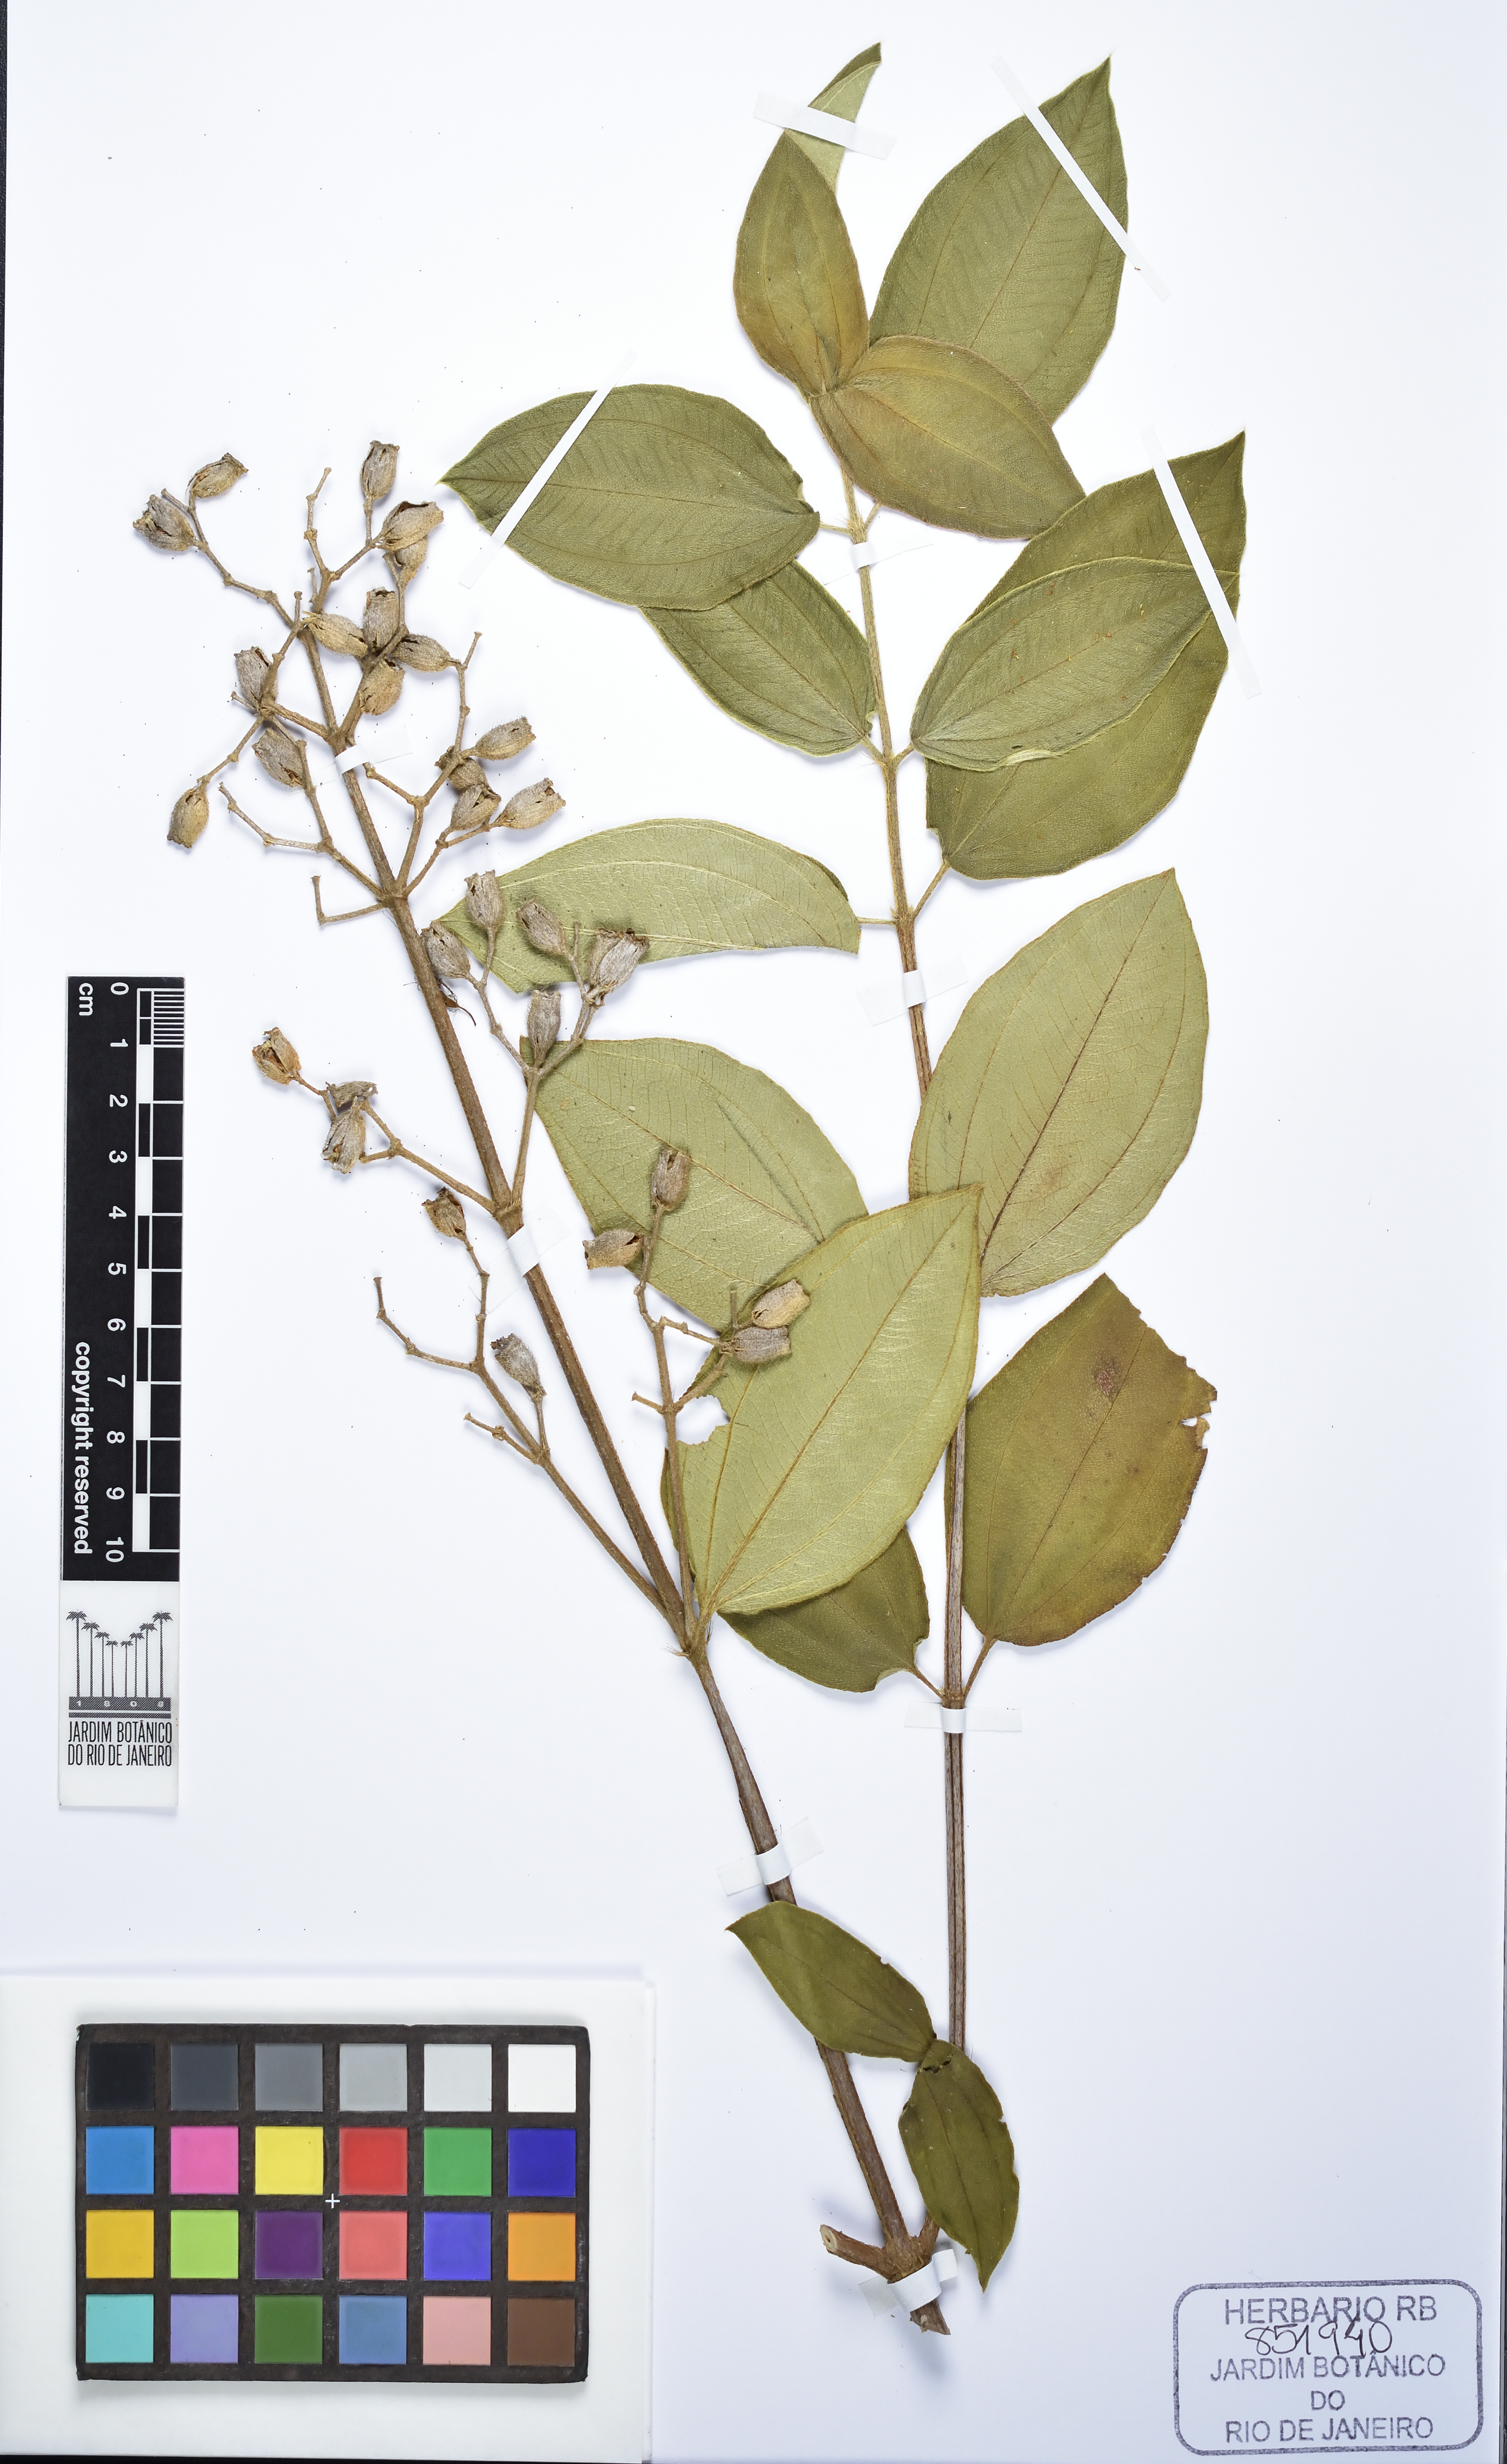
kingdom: Plantae
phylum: Tracheophyta
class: Magnoliopsida
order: Myrtales
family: Melastomataceae
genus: Pleroma
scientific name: Pleroma gaudichaudianum
